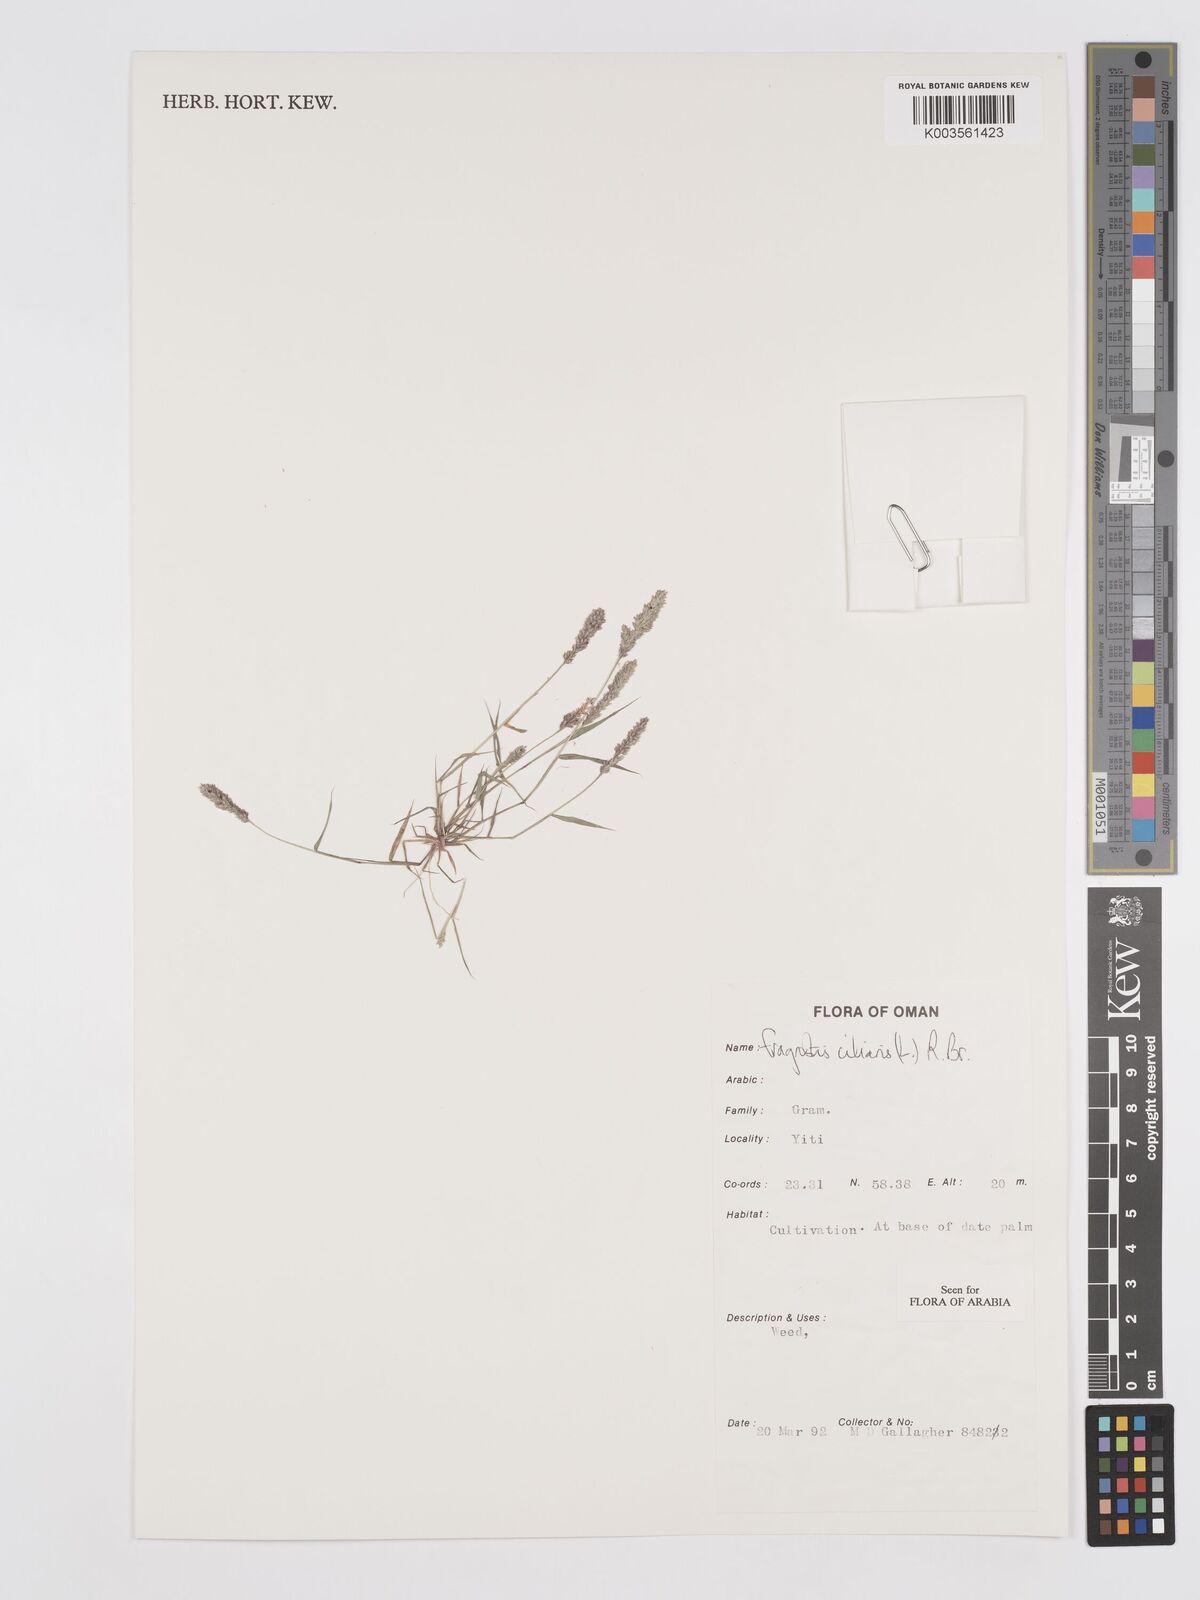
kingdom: Plantae
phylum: Tracheophyta
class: Liliopsida
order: Poales
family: Poaceae
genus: Eragrostis
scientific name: Eragrostis ciliaris
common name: Gophertail lovegrass
